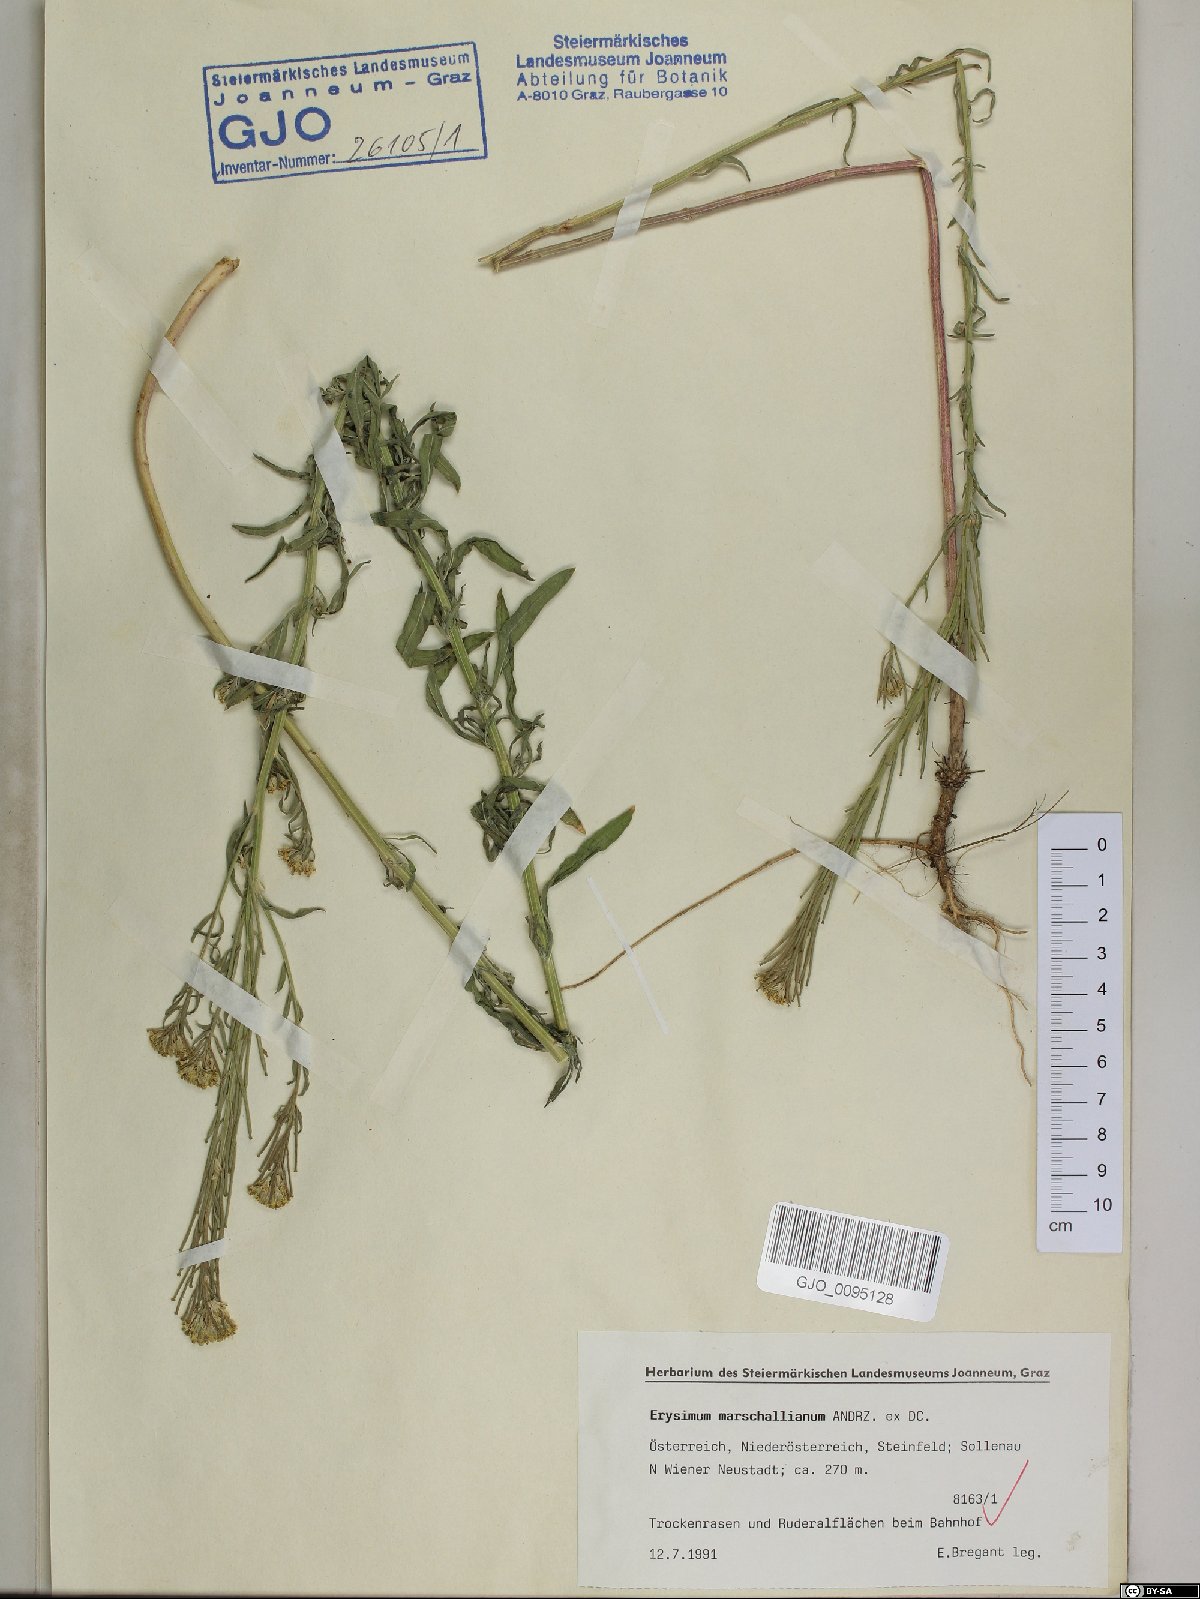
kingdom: Plantae
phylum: Tracheophyta
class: Magnoliopsida
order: Brassicales
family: Brassicaceae
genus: Erysimum
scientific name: Erysimum marschallianum
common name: Hard wallflower
